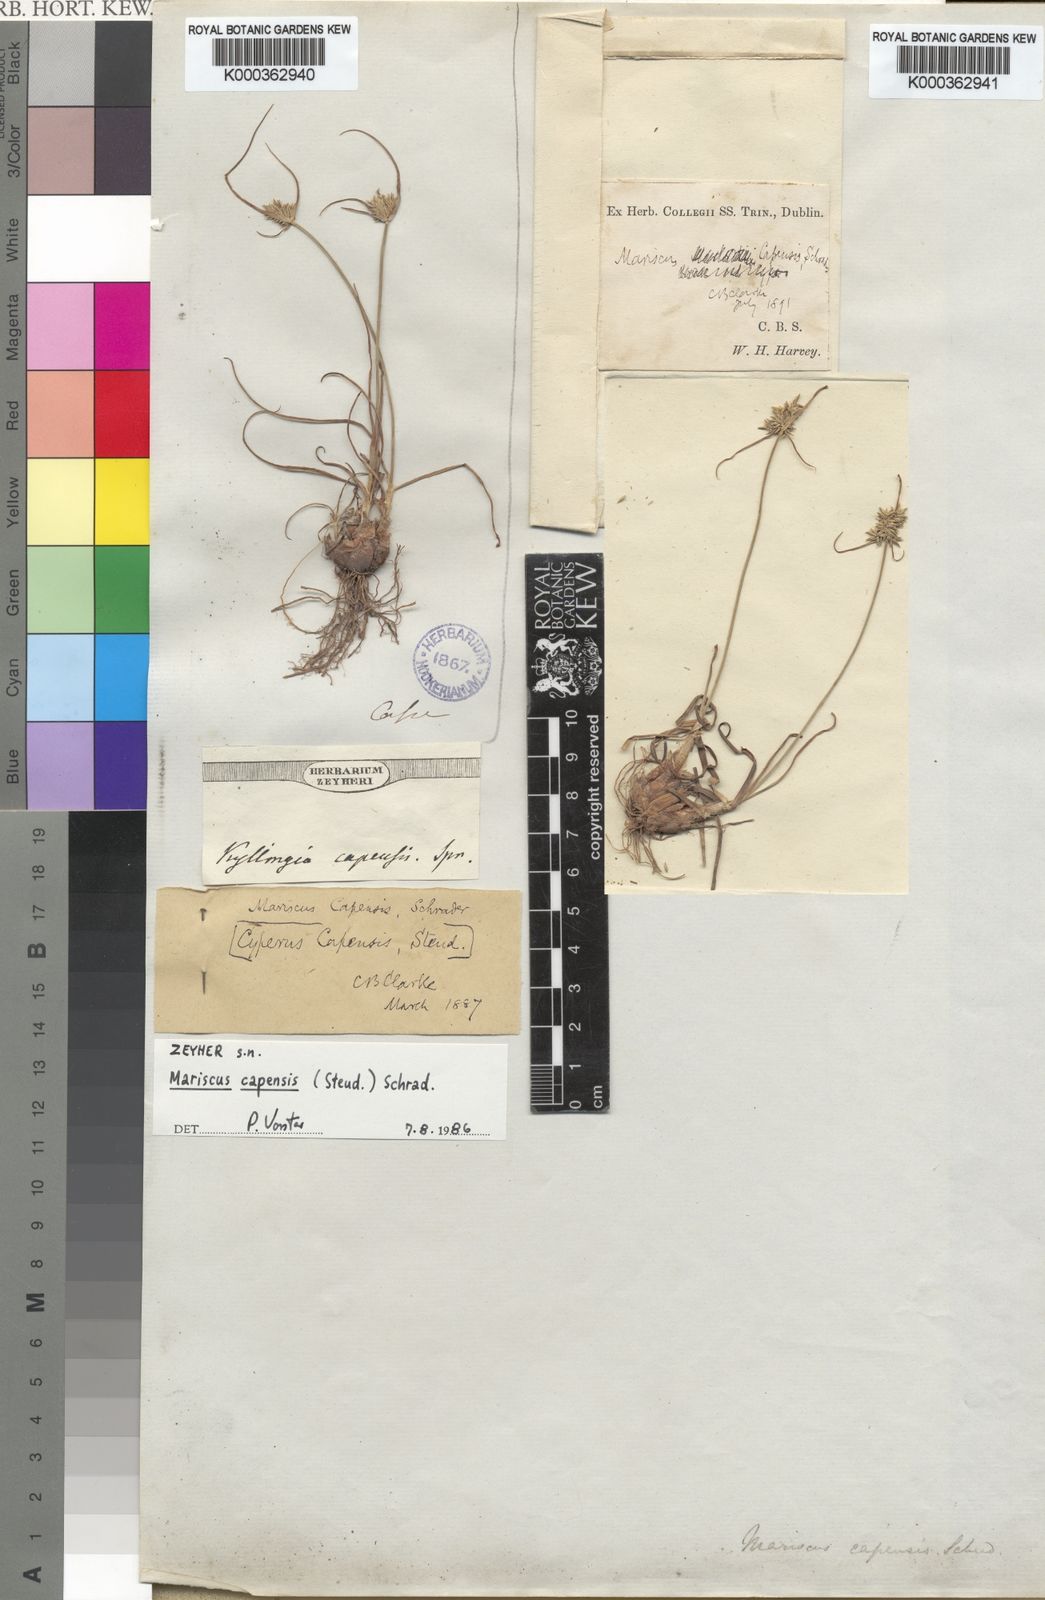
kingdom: Plantae
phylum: Tracheophyta
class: Liliopsida
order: Poales
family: Cyperaceae
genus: Cyperus
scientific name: Cyperus capensis
